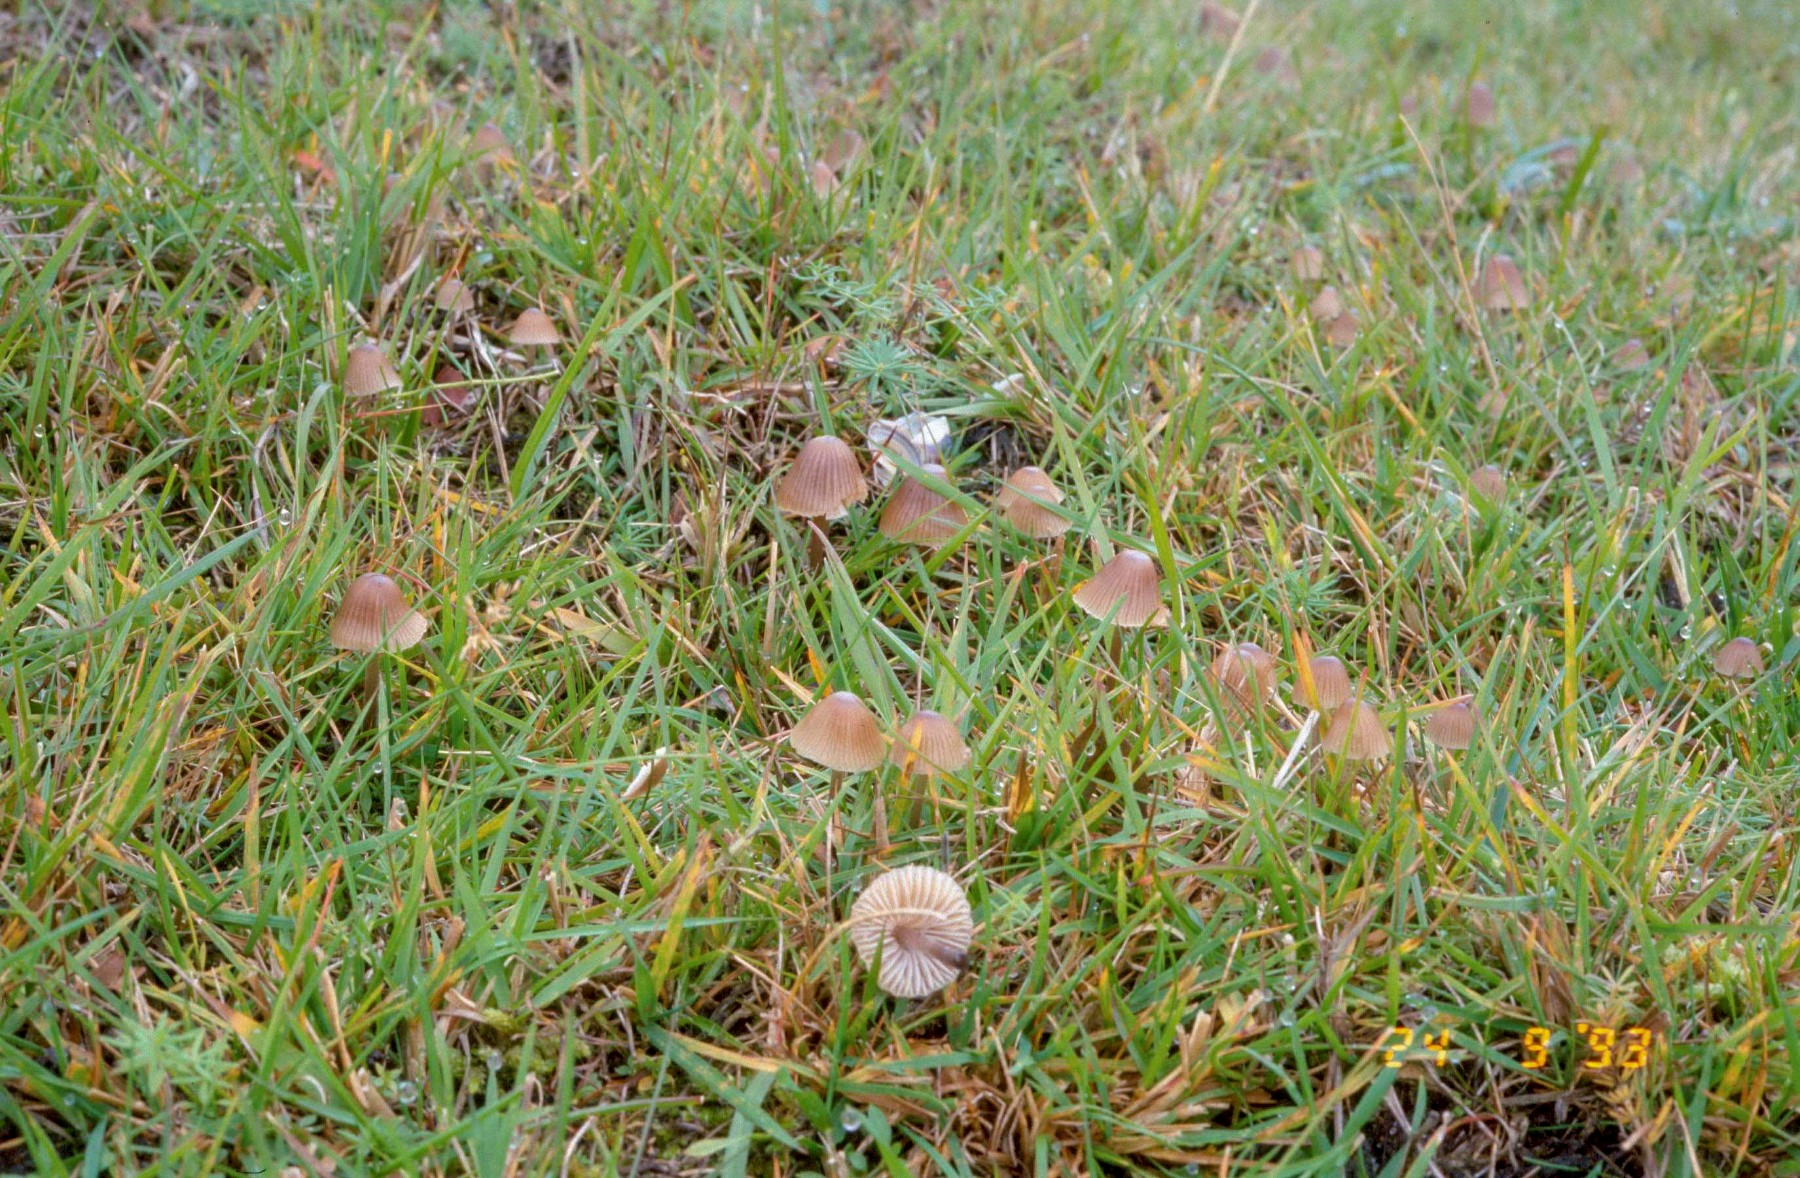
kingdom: Fungi
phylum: Basidiomycota
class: Agaricomycetes
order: Agaricales
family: Mycenaceae
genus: Mycena
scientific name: Mycena leptocephala
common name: klor-huesvamp
